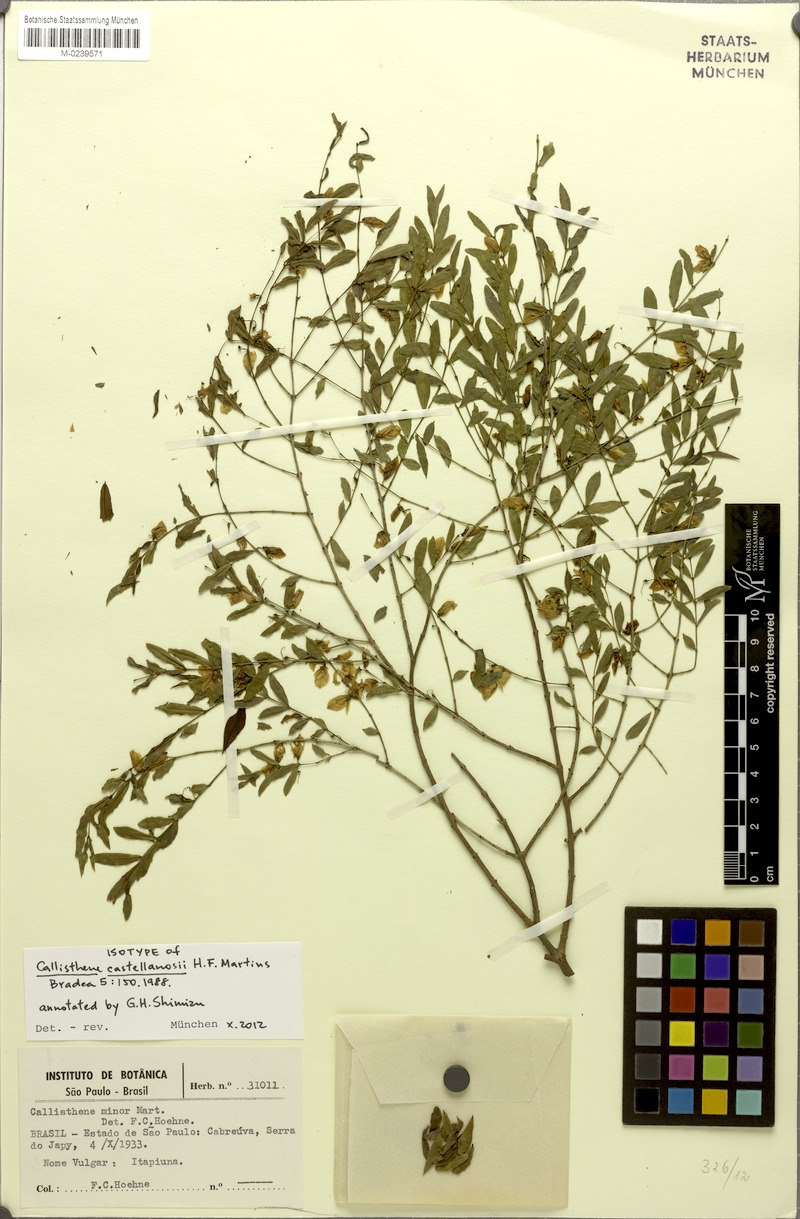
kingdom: Plantae
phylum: Tracheophyta
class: Magnoliopsida
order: Myrtales
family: Vochysiaceae
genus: Callisthene
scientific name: Callisthene minor
